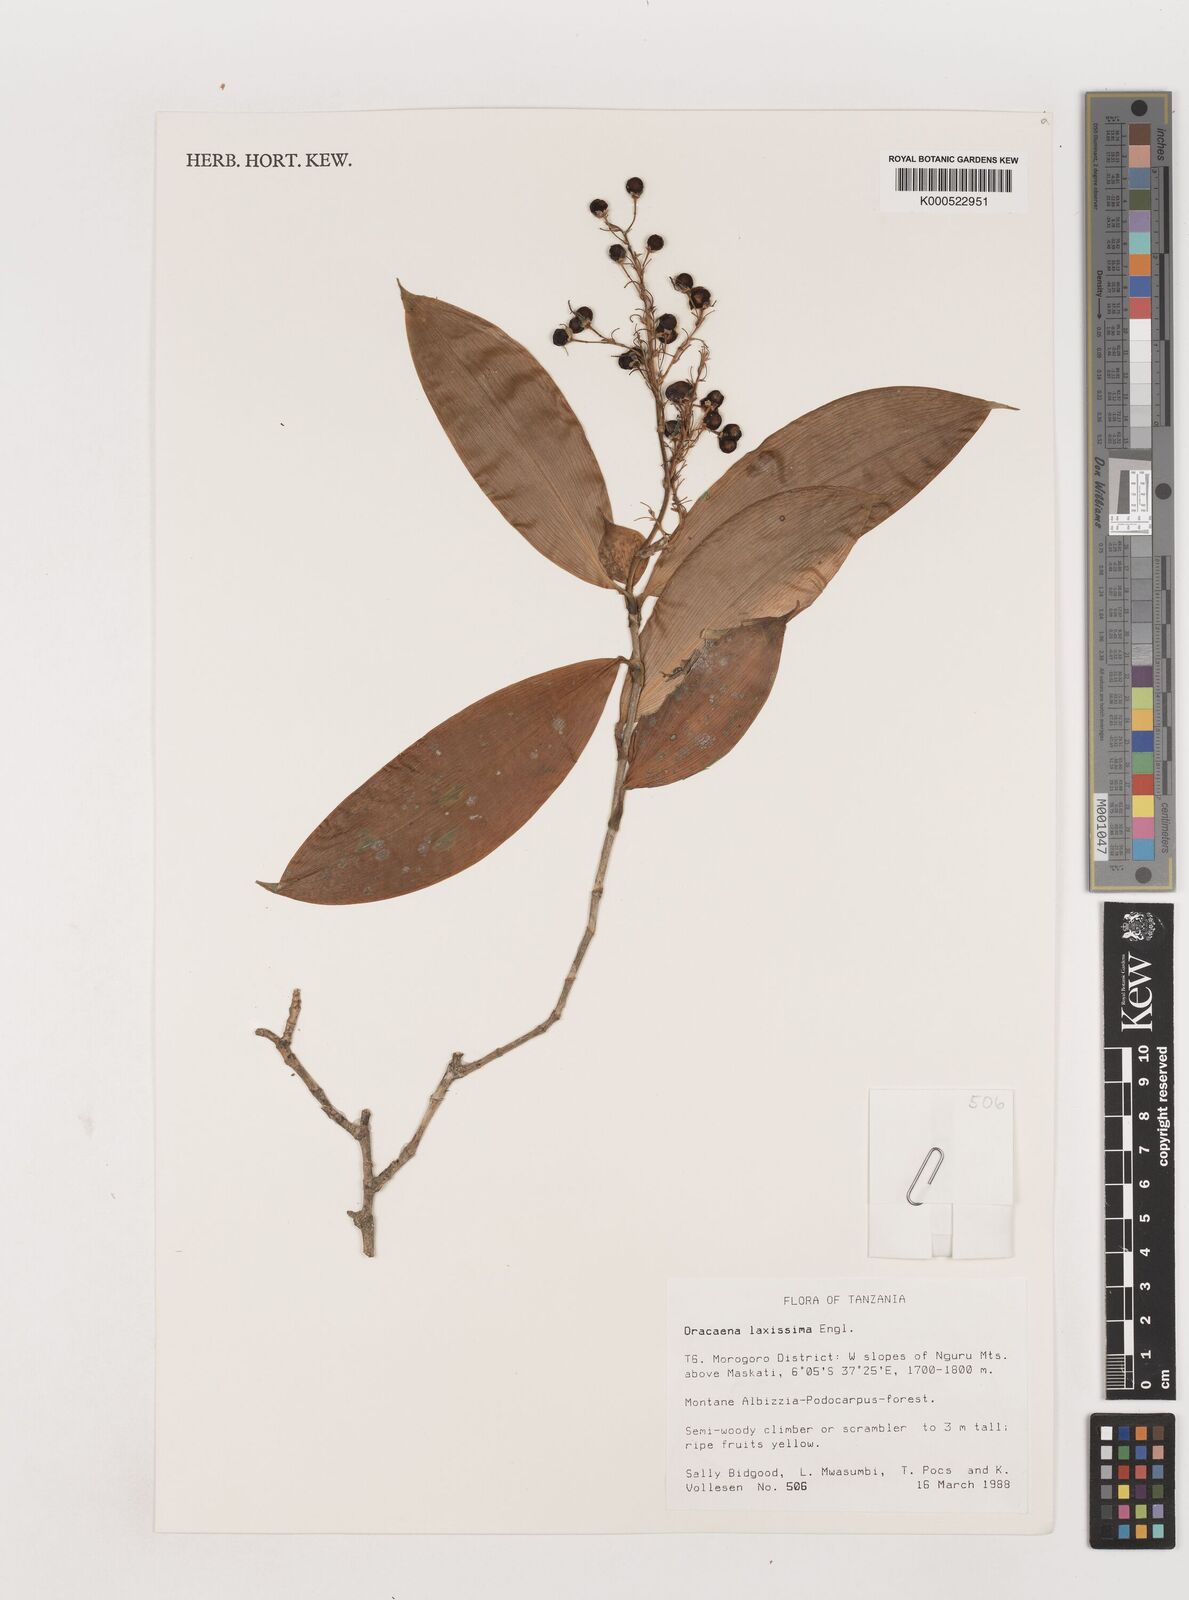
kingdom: Plantae
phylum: Tracheophyta
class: Liliopsida
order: Asparagales
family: Asparagaceae
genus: Dracaena
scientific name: Dracaena laxissima
